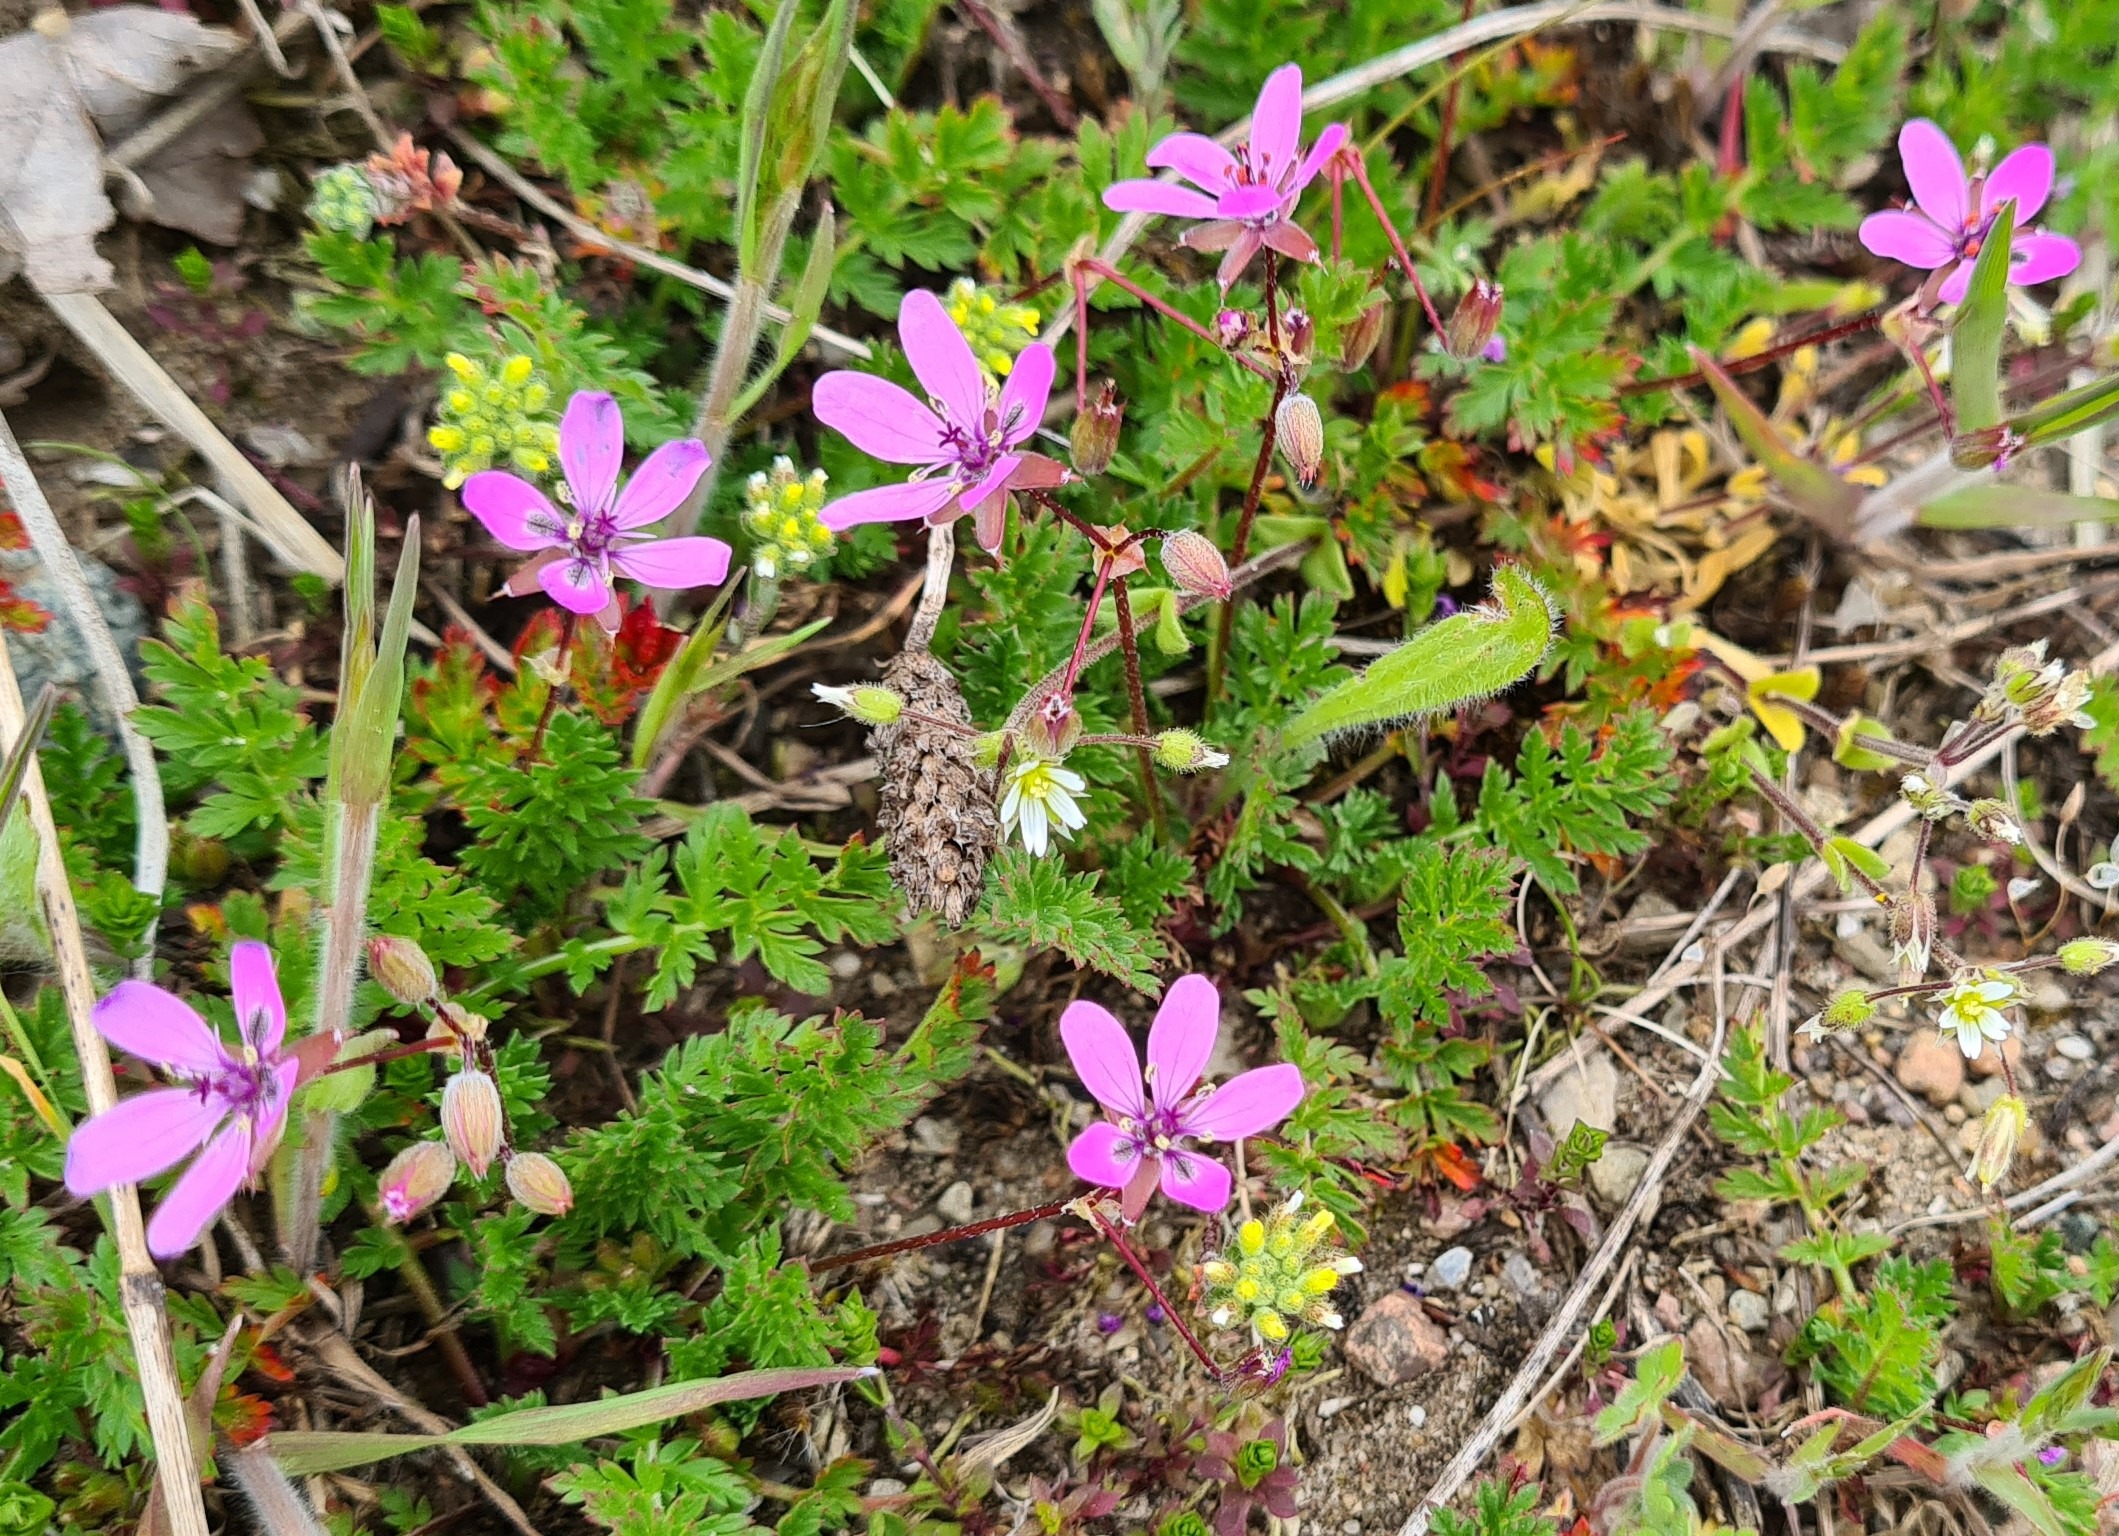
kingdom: Plantae
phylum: Tracheophyta
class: Magnoliopsida
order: Geraniales
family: Geraniaceae
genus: Erodium
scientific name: Erodium cicutarium
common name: Hejrenæb
